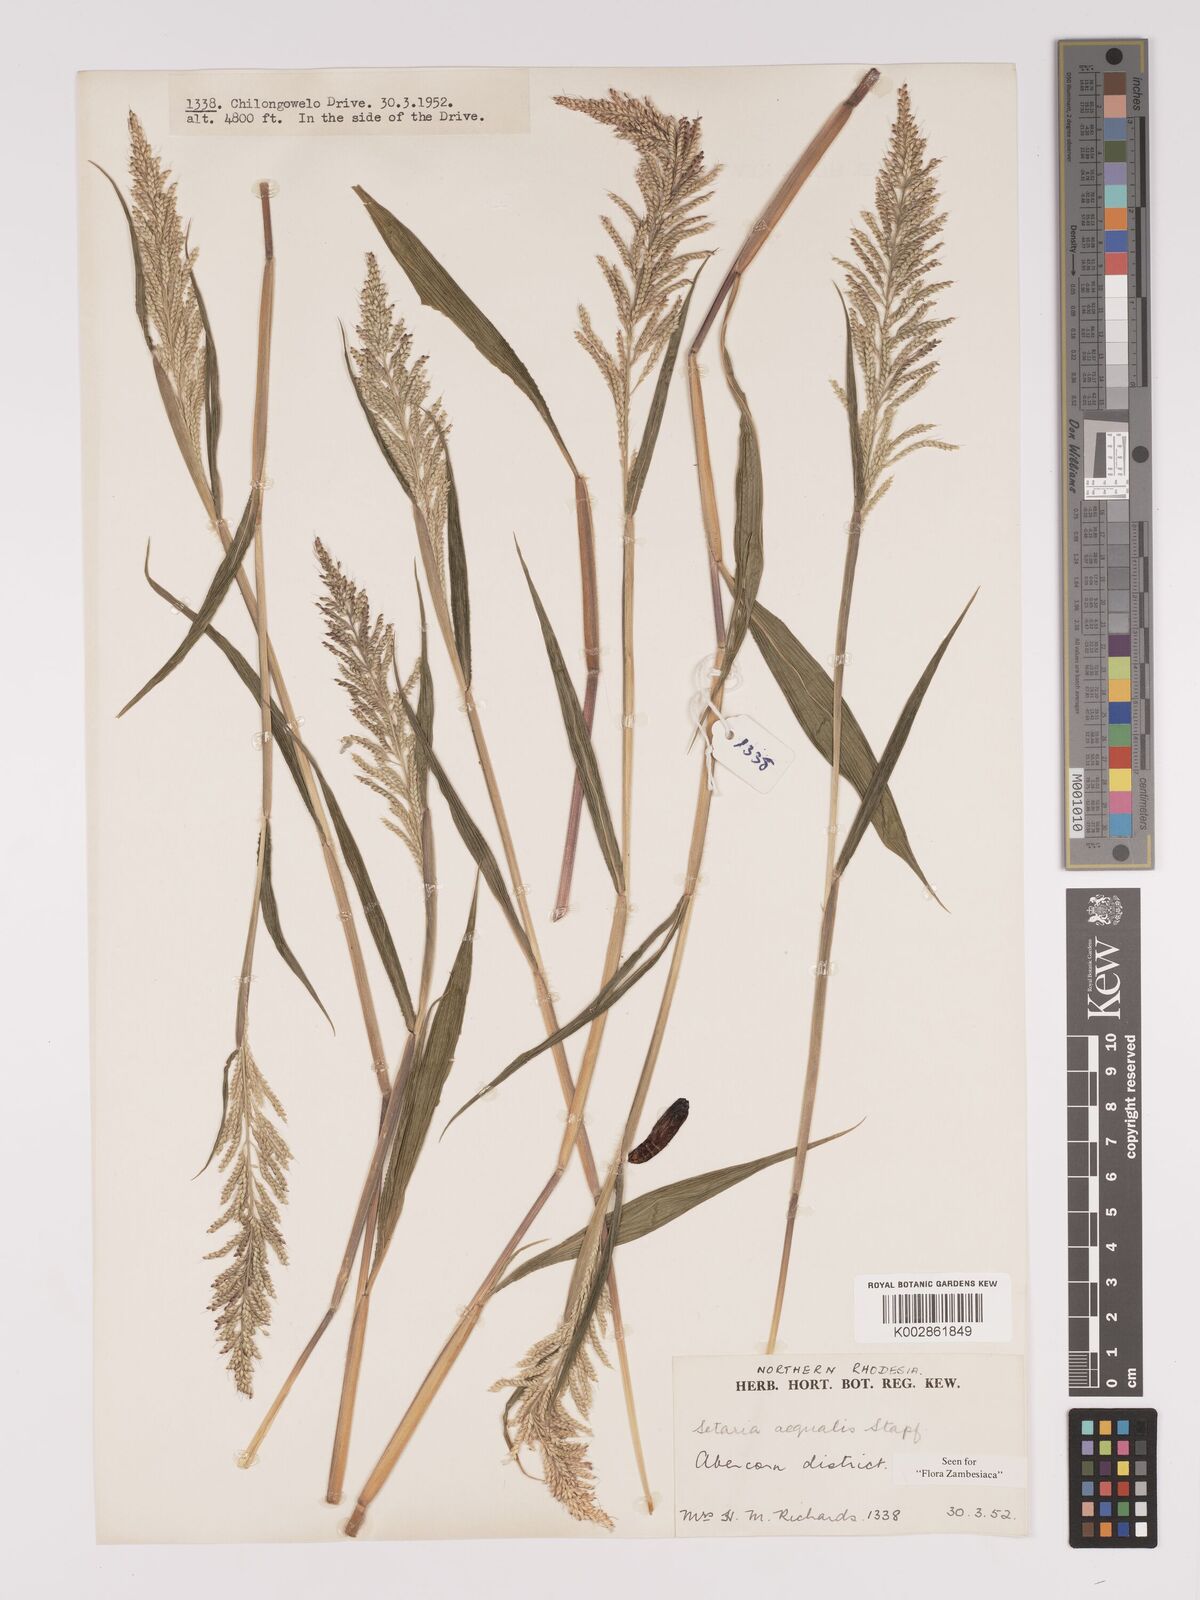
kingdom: Plantae
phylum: Tracheophyta
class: Liliopsida
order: Poales
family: Poaceae
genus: Setaria
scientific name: Setaria homonyma
